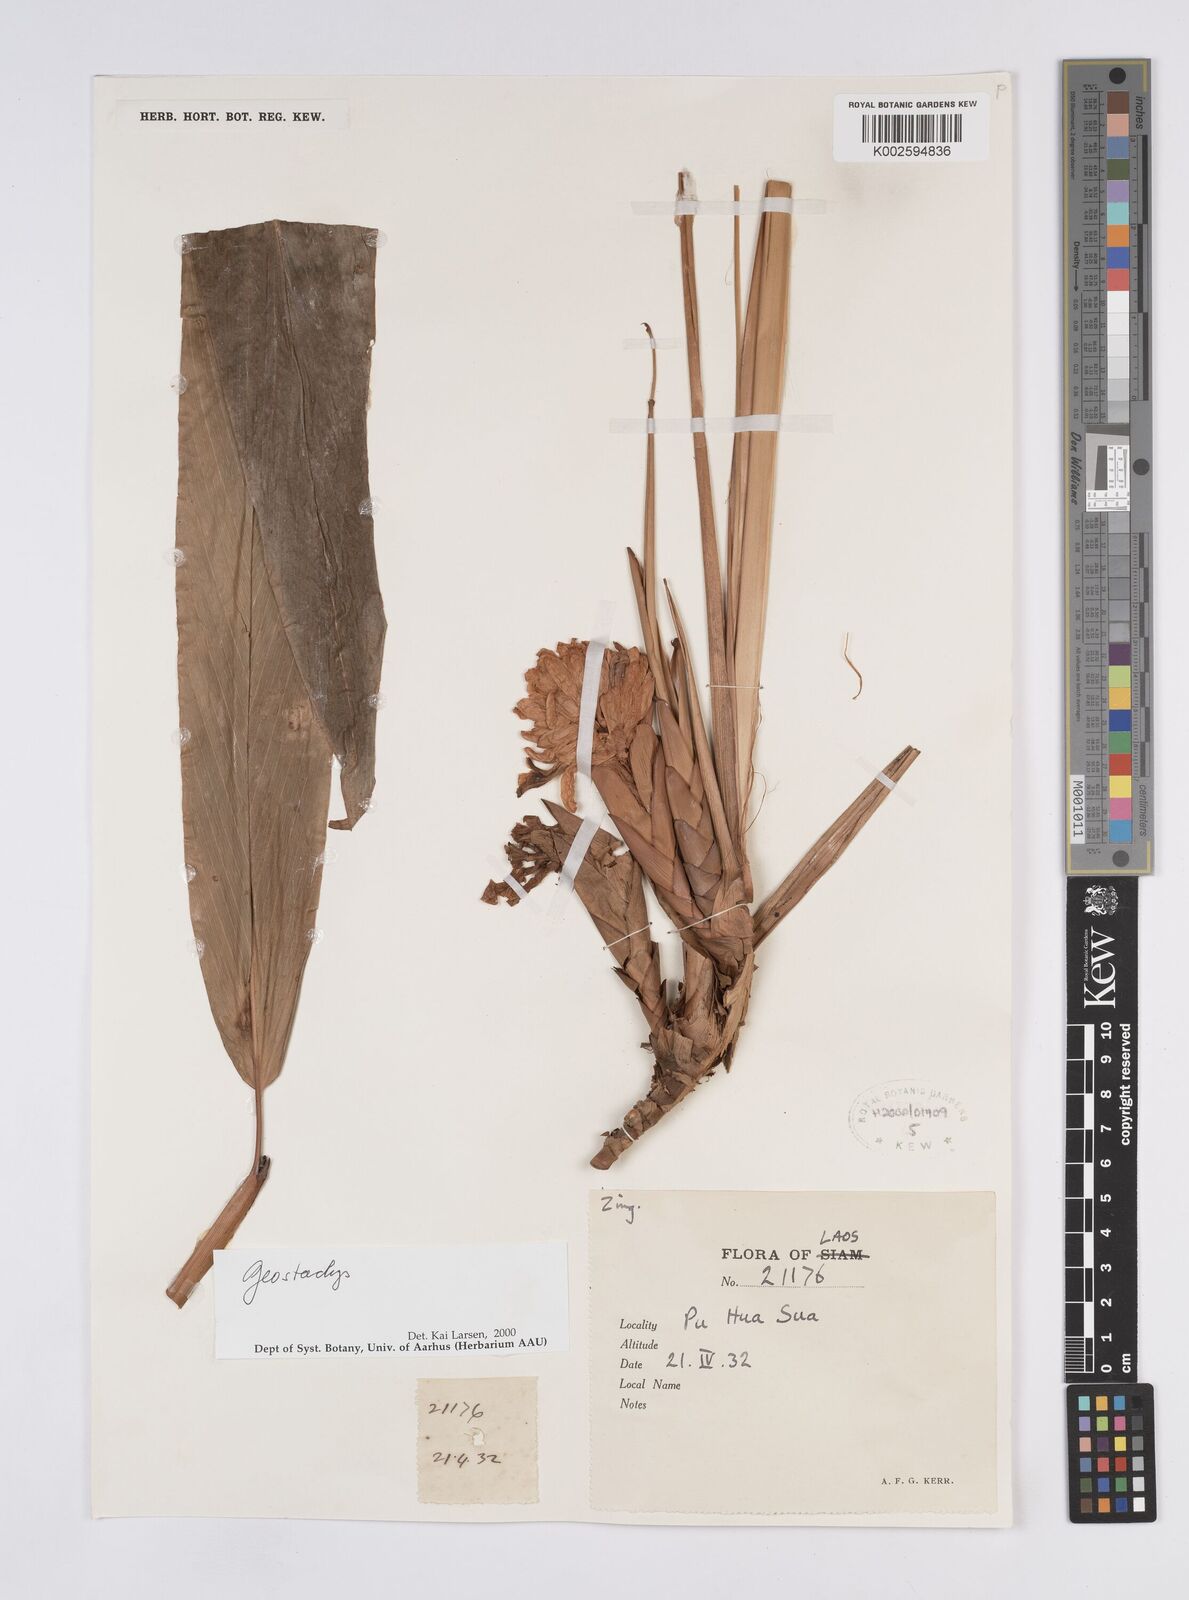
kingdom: Plantae
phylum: Tracheophyta
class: Liliopsida
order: Zingiberales
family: Zingiberaceae
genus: Geostachys
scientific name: Geostachys
